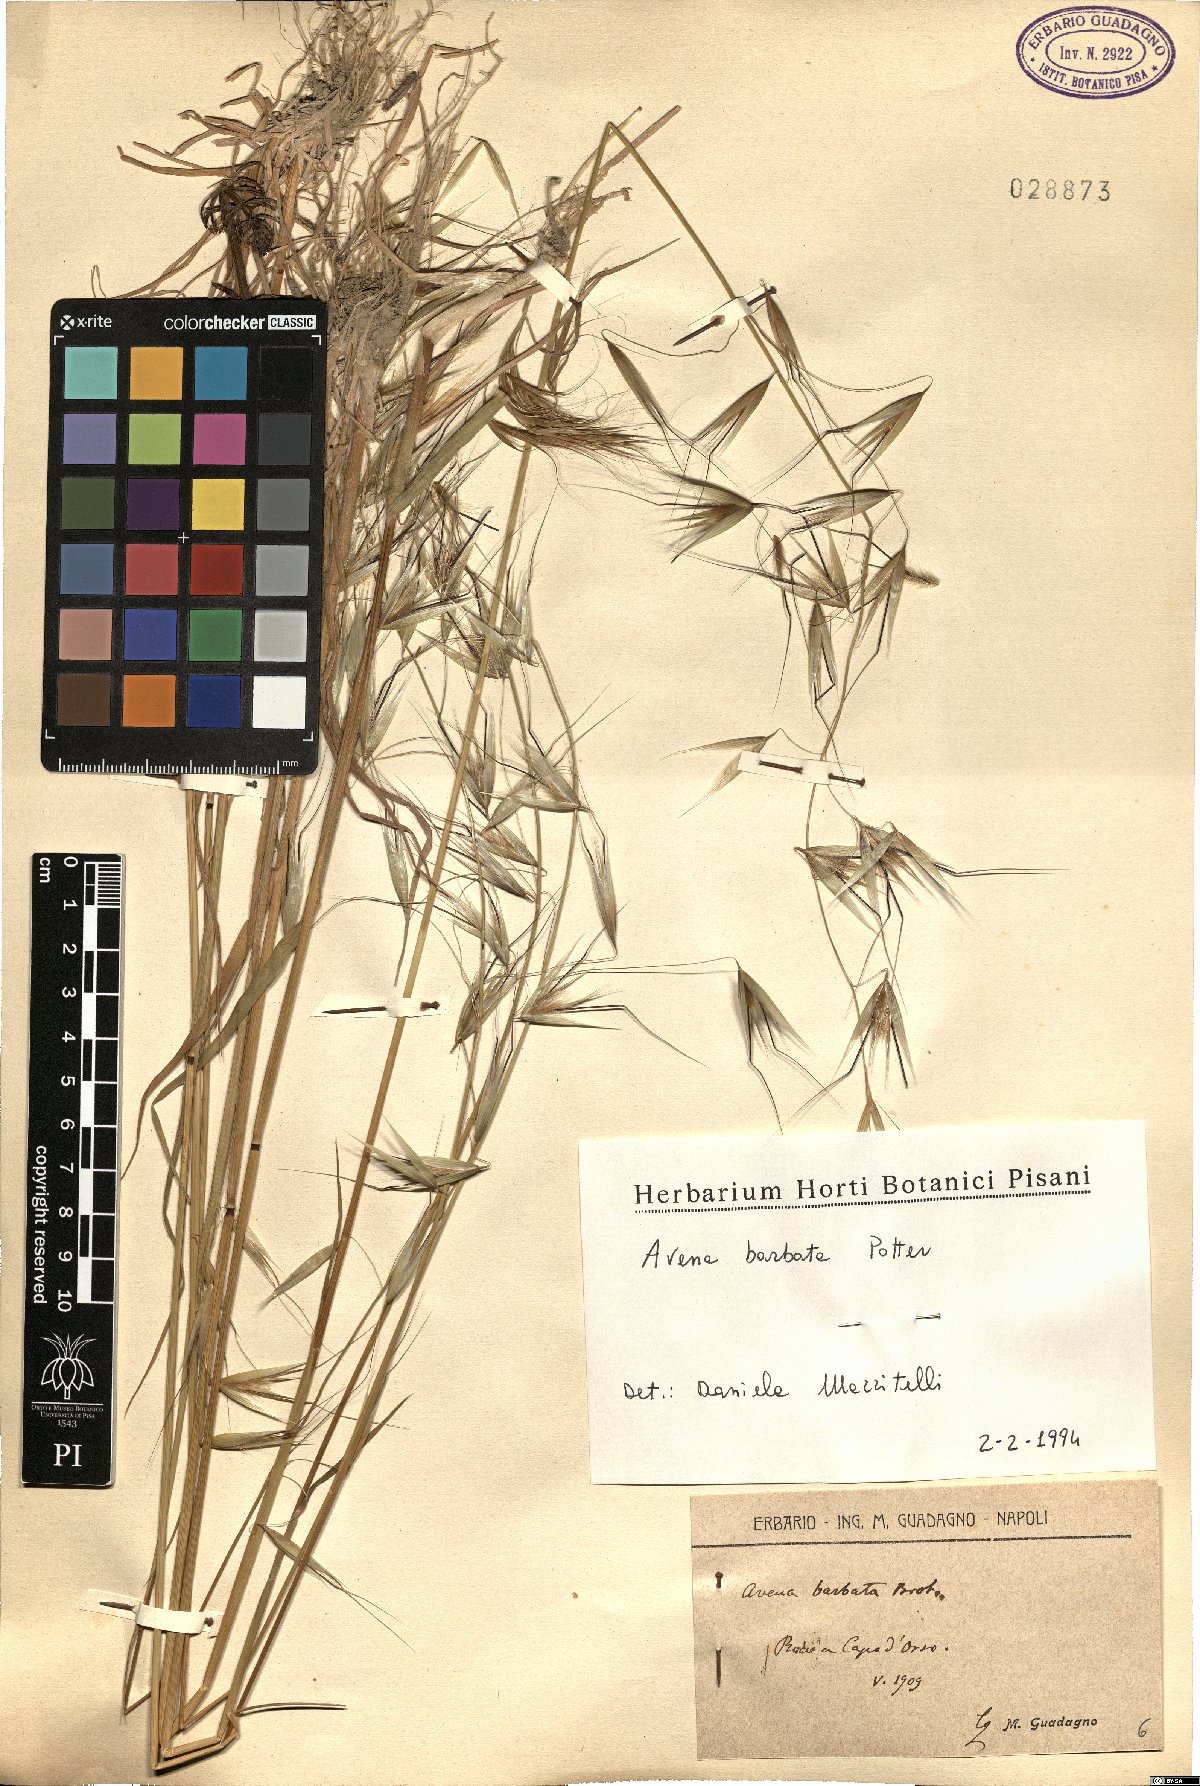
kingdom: Plantae
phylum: Tracheophyta
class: Liliopsida
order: Poales
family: Poaceae
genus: Avena
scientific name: Avena barbata
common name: Slender oat
